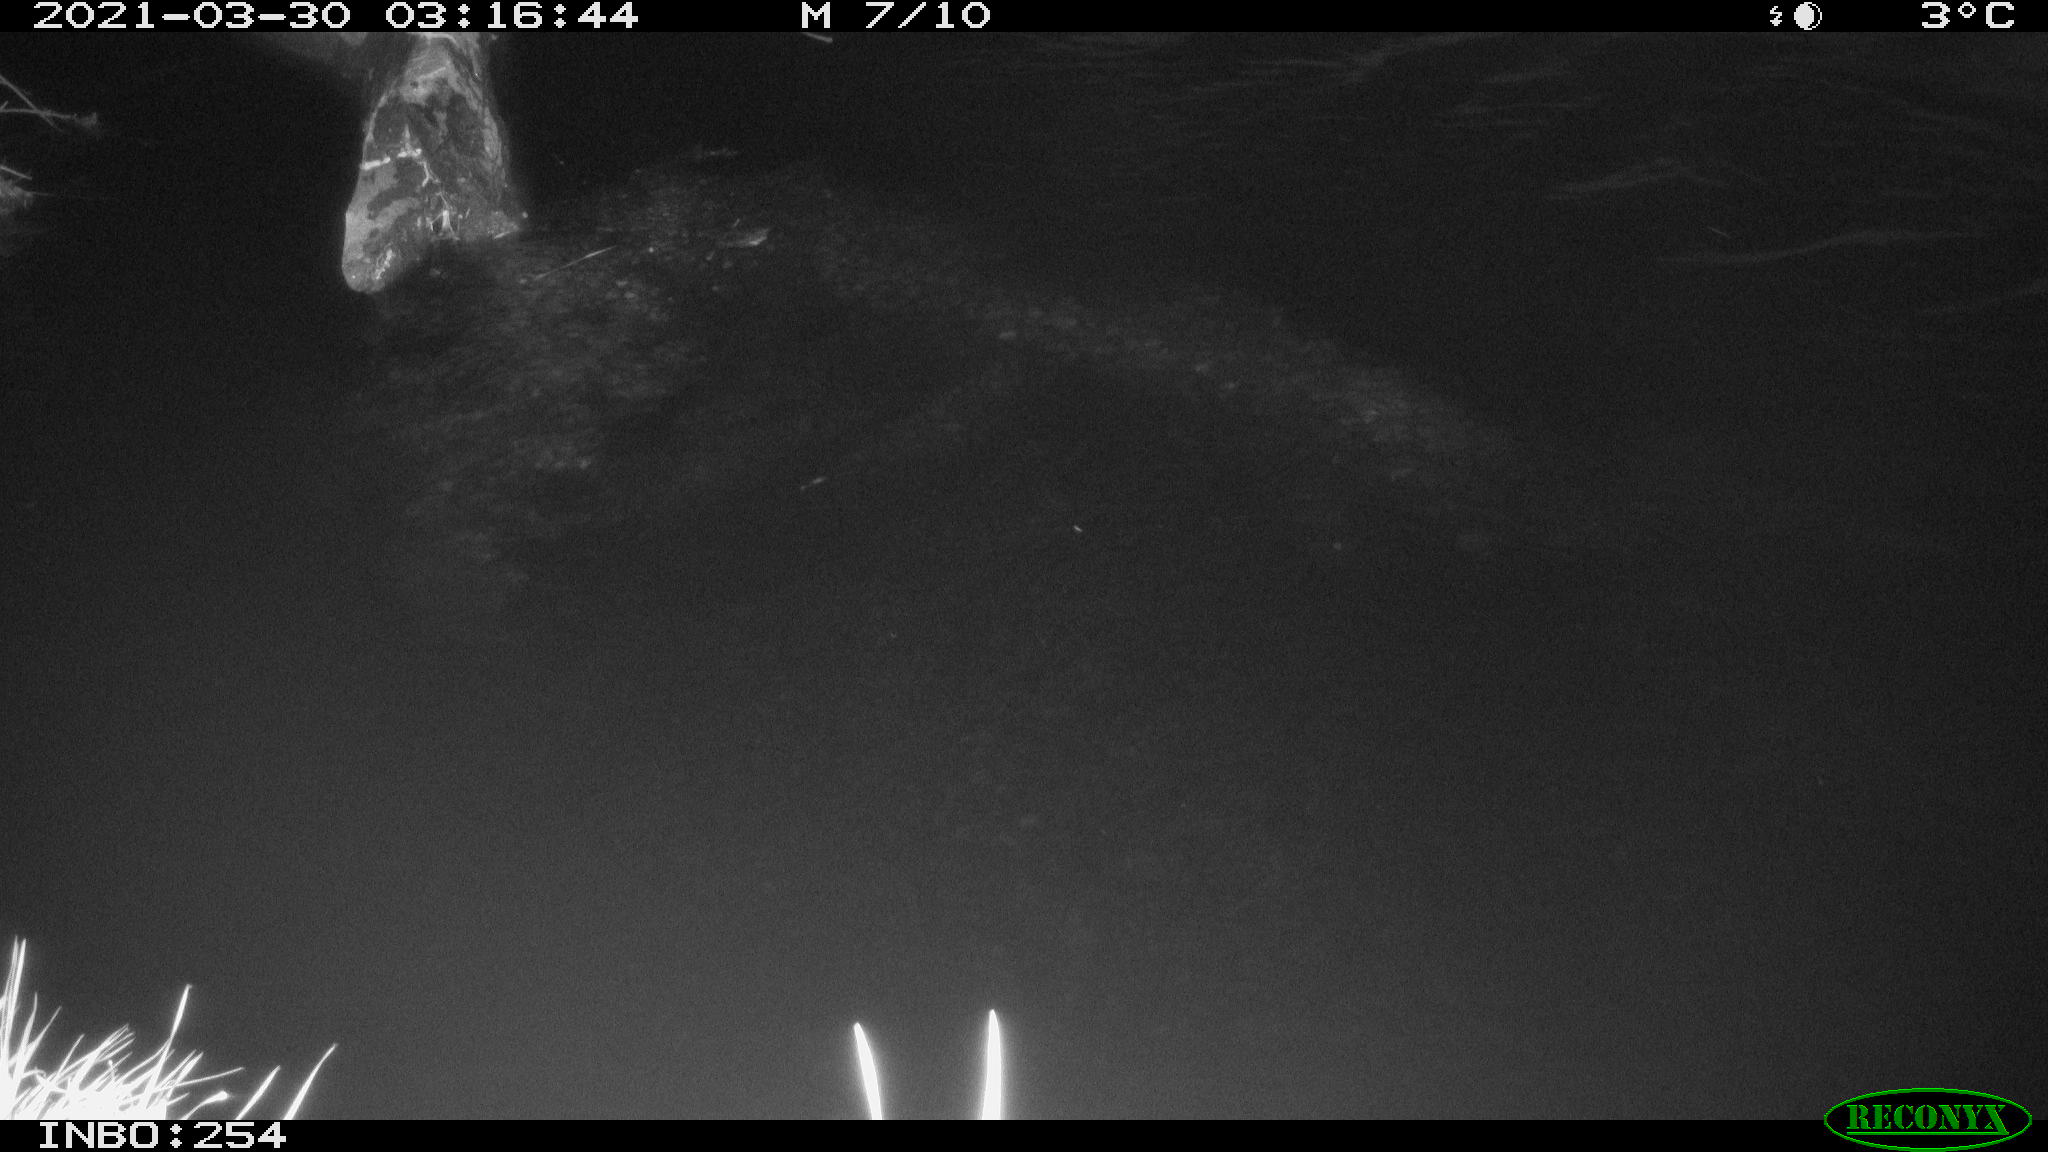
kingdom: Animalia
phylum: Chordata
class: Aves
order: Anseriformes
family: Anatidae
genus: Anas
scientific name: Anas platyrhynchos
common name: Mallard
